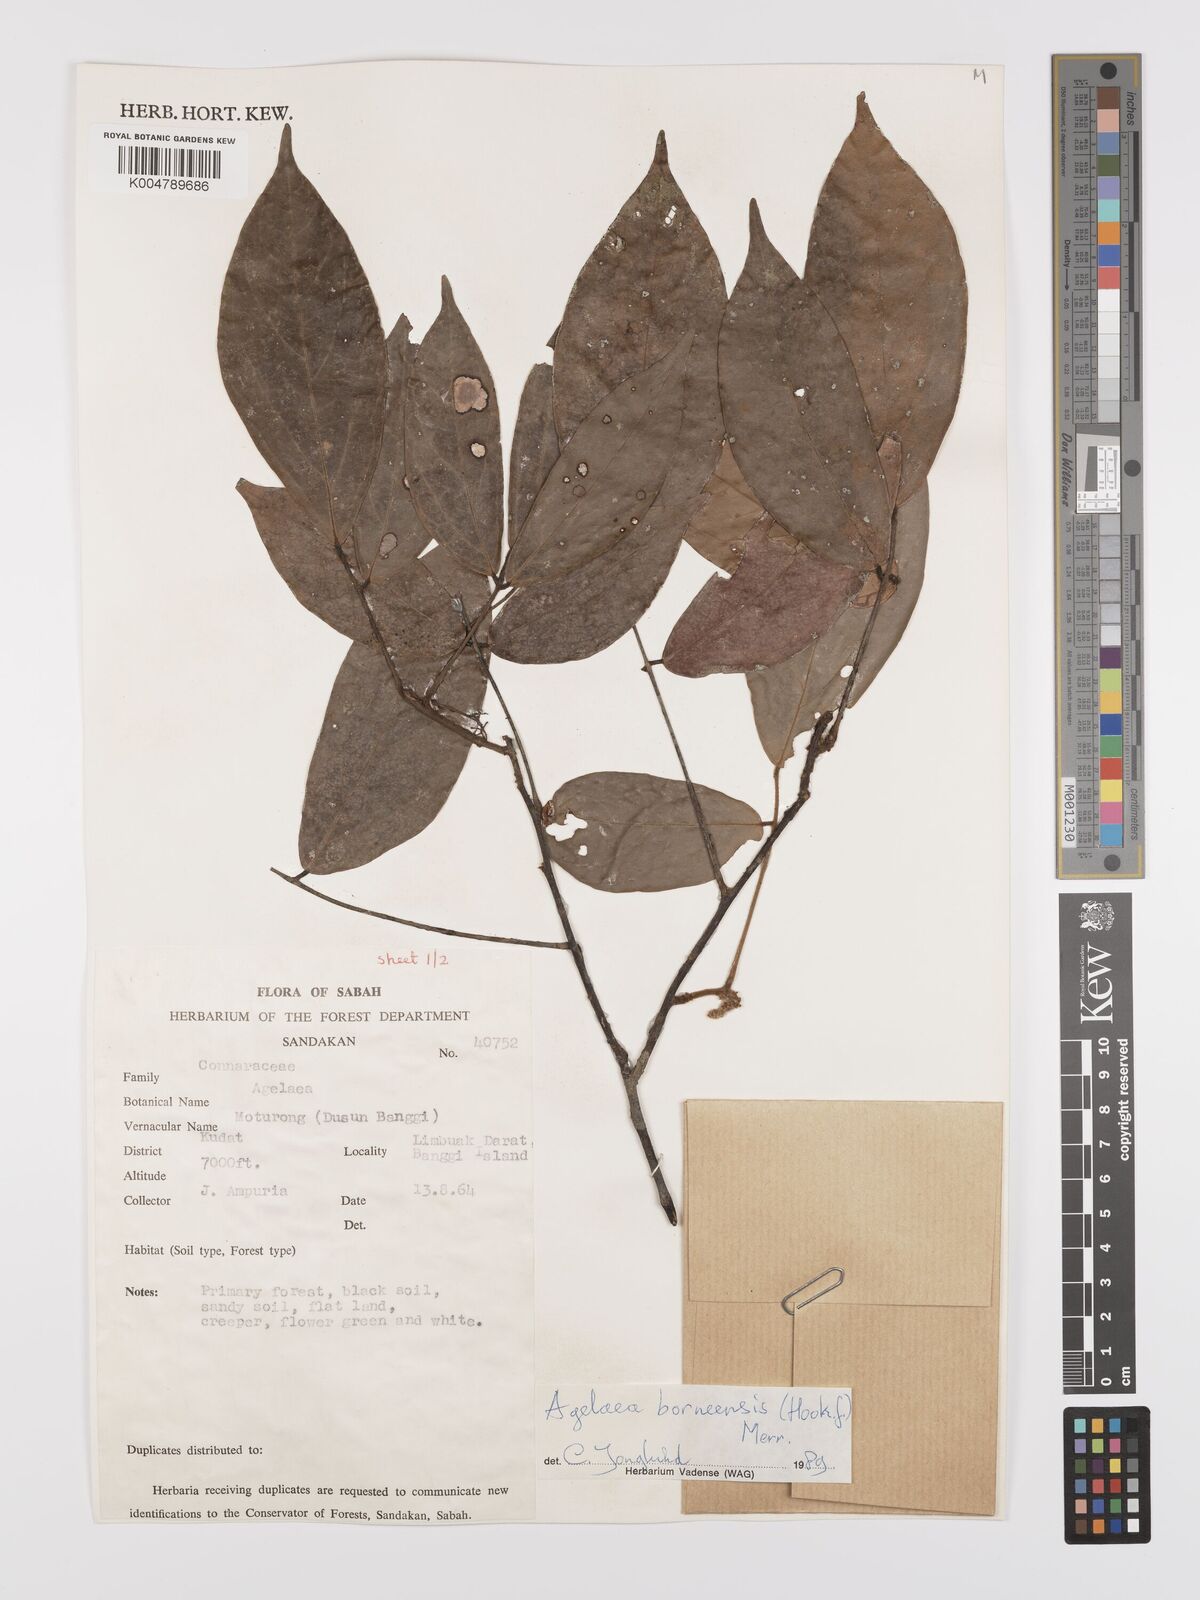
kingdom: Plantae
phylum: Tracheophyta
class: Magnoliopsida
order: Oxalidales
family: Connaraceae
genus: Agelaea
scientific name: Agelaea borneensis
